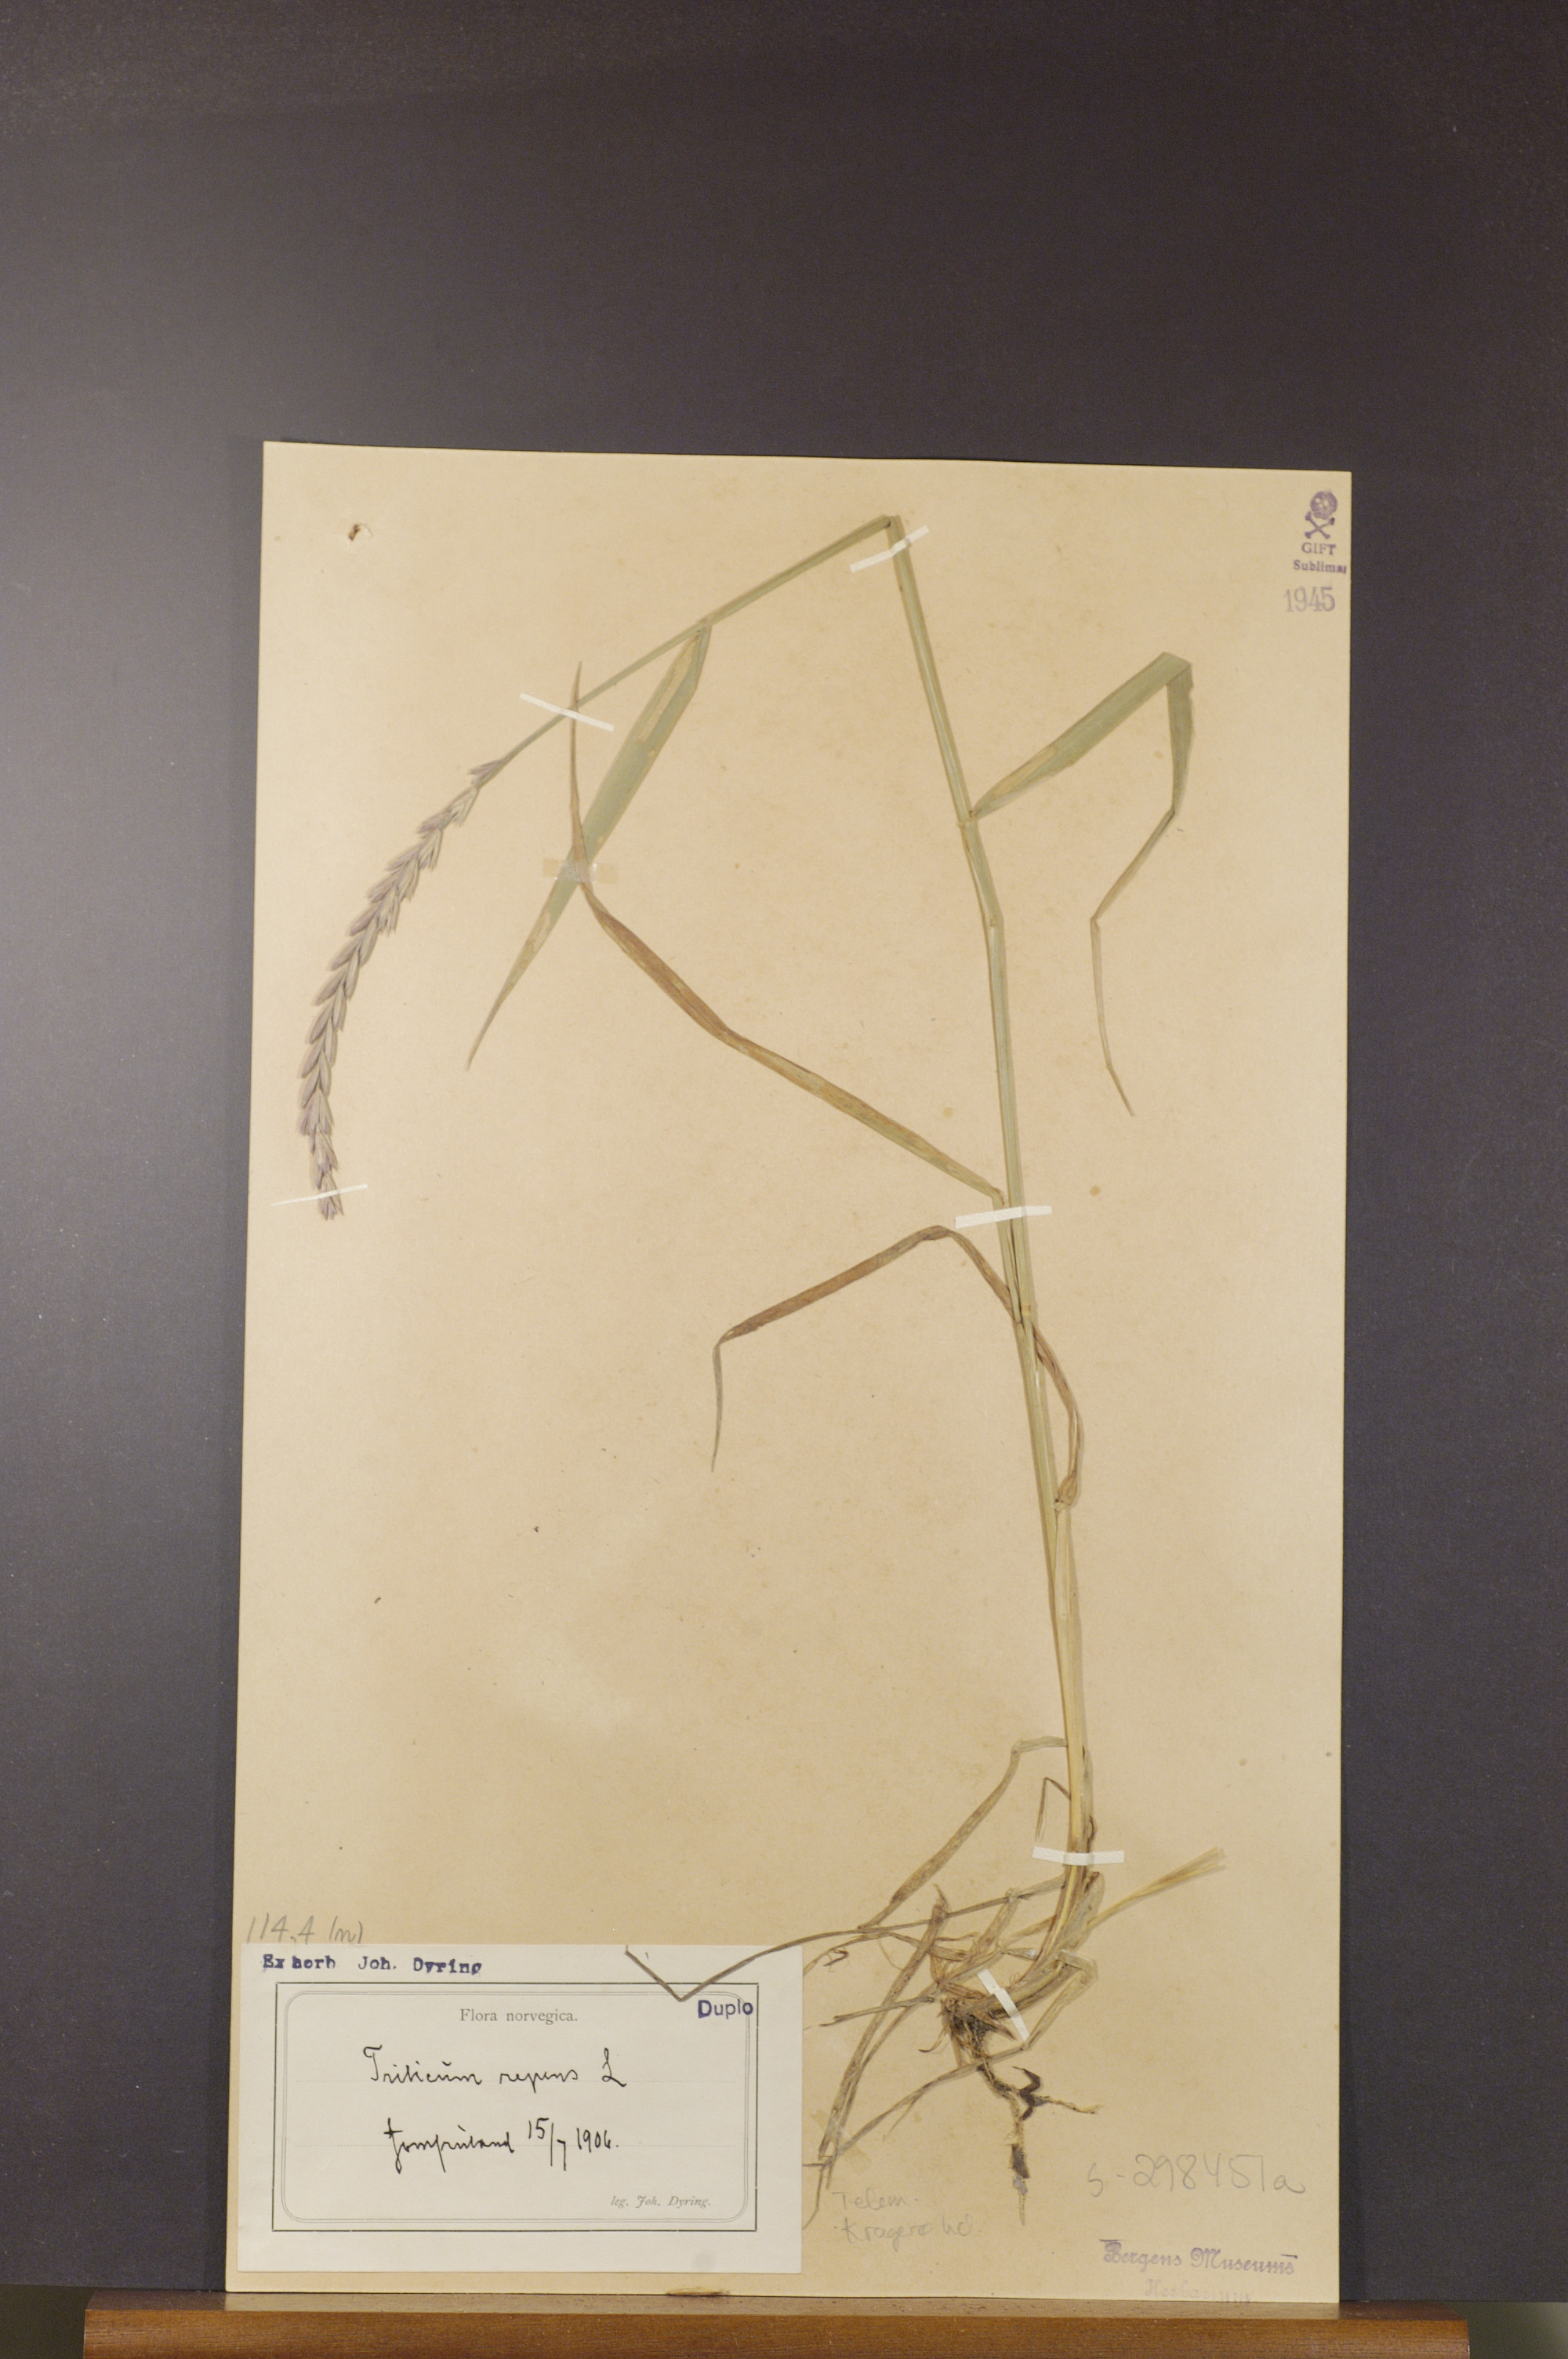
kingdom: Plantae
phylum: Tracheophyta
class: Liliopsida
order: Poales
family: Poaceae
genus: Elymus
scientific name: Elymus repens
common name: Quackgrass
